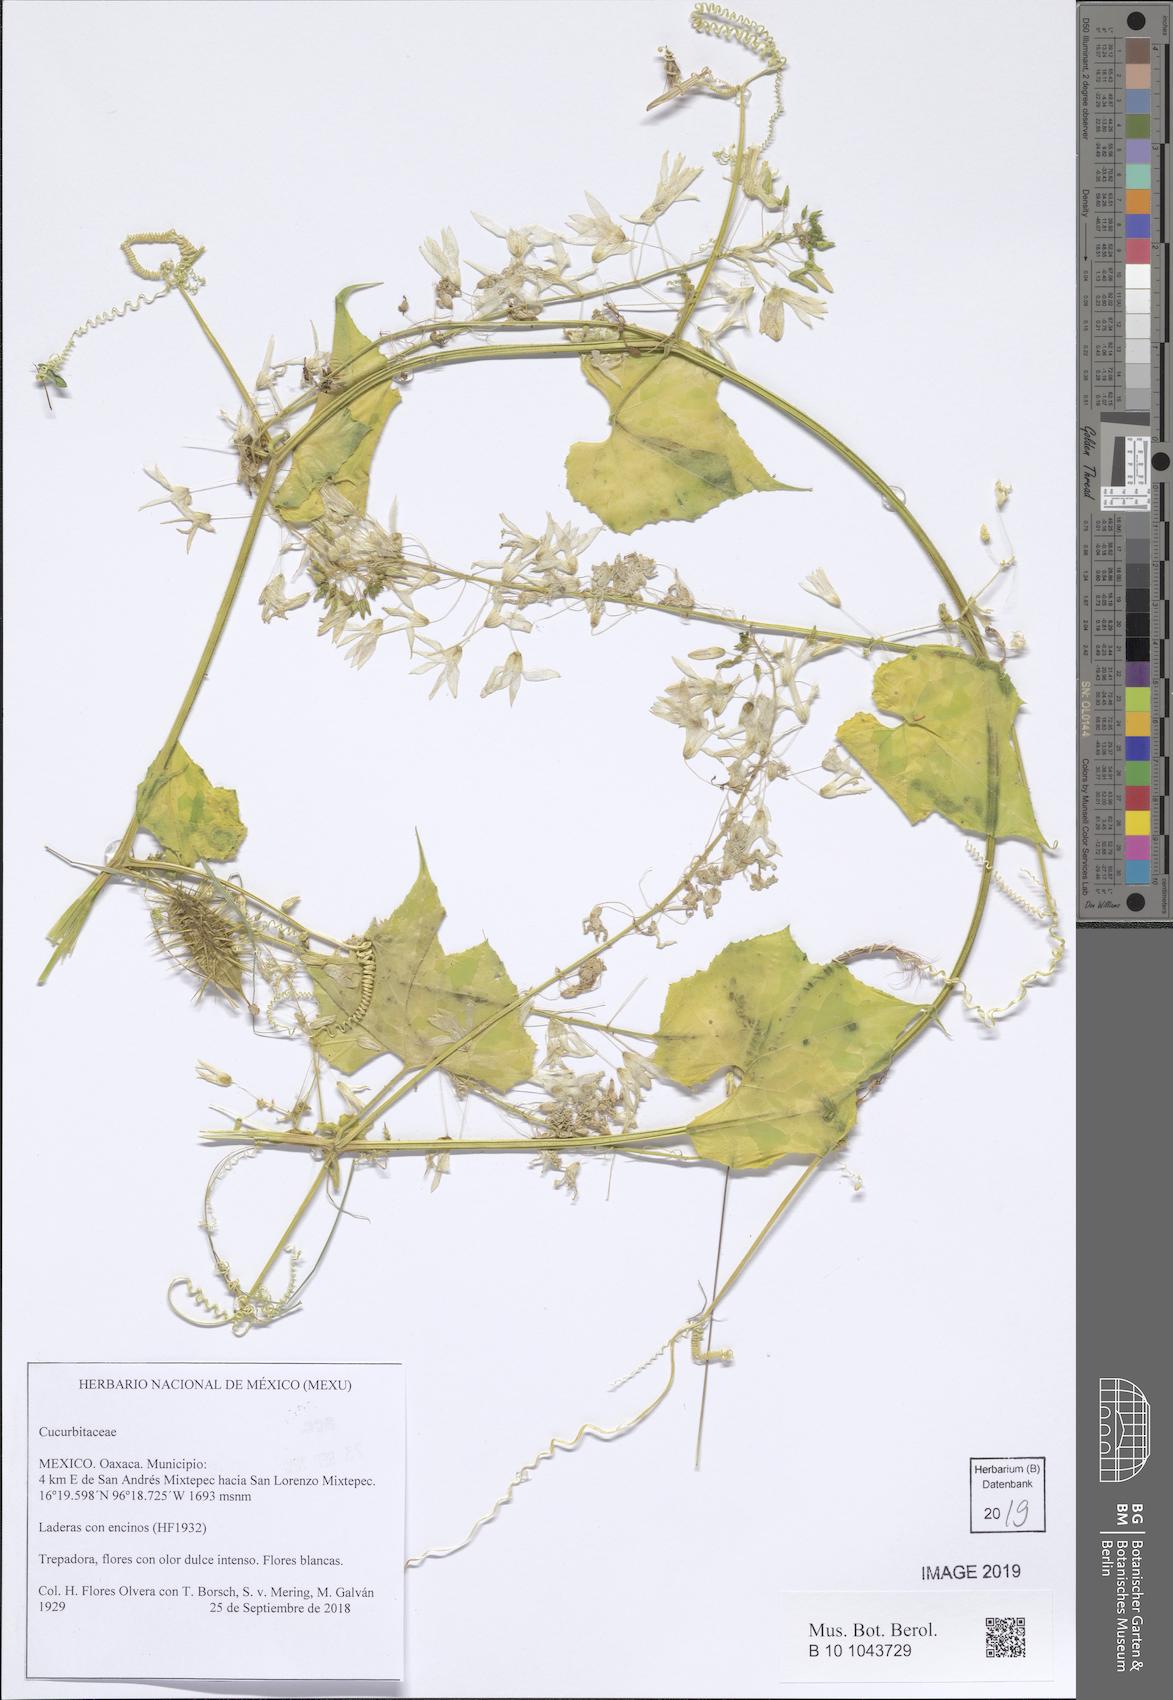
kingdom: Plantae
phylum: Tracheophyta
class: Magnoliopsida
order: Cucurbitales
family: Cucurbitaceae
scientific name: Cucurbitaceae
